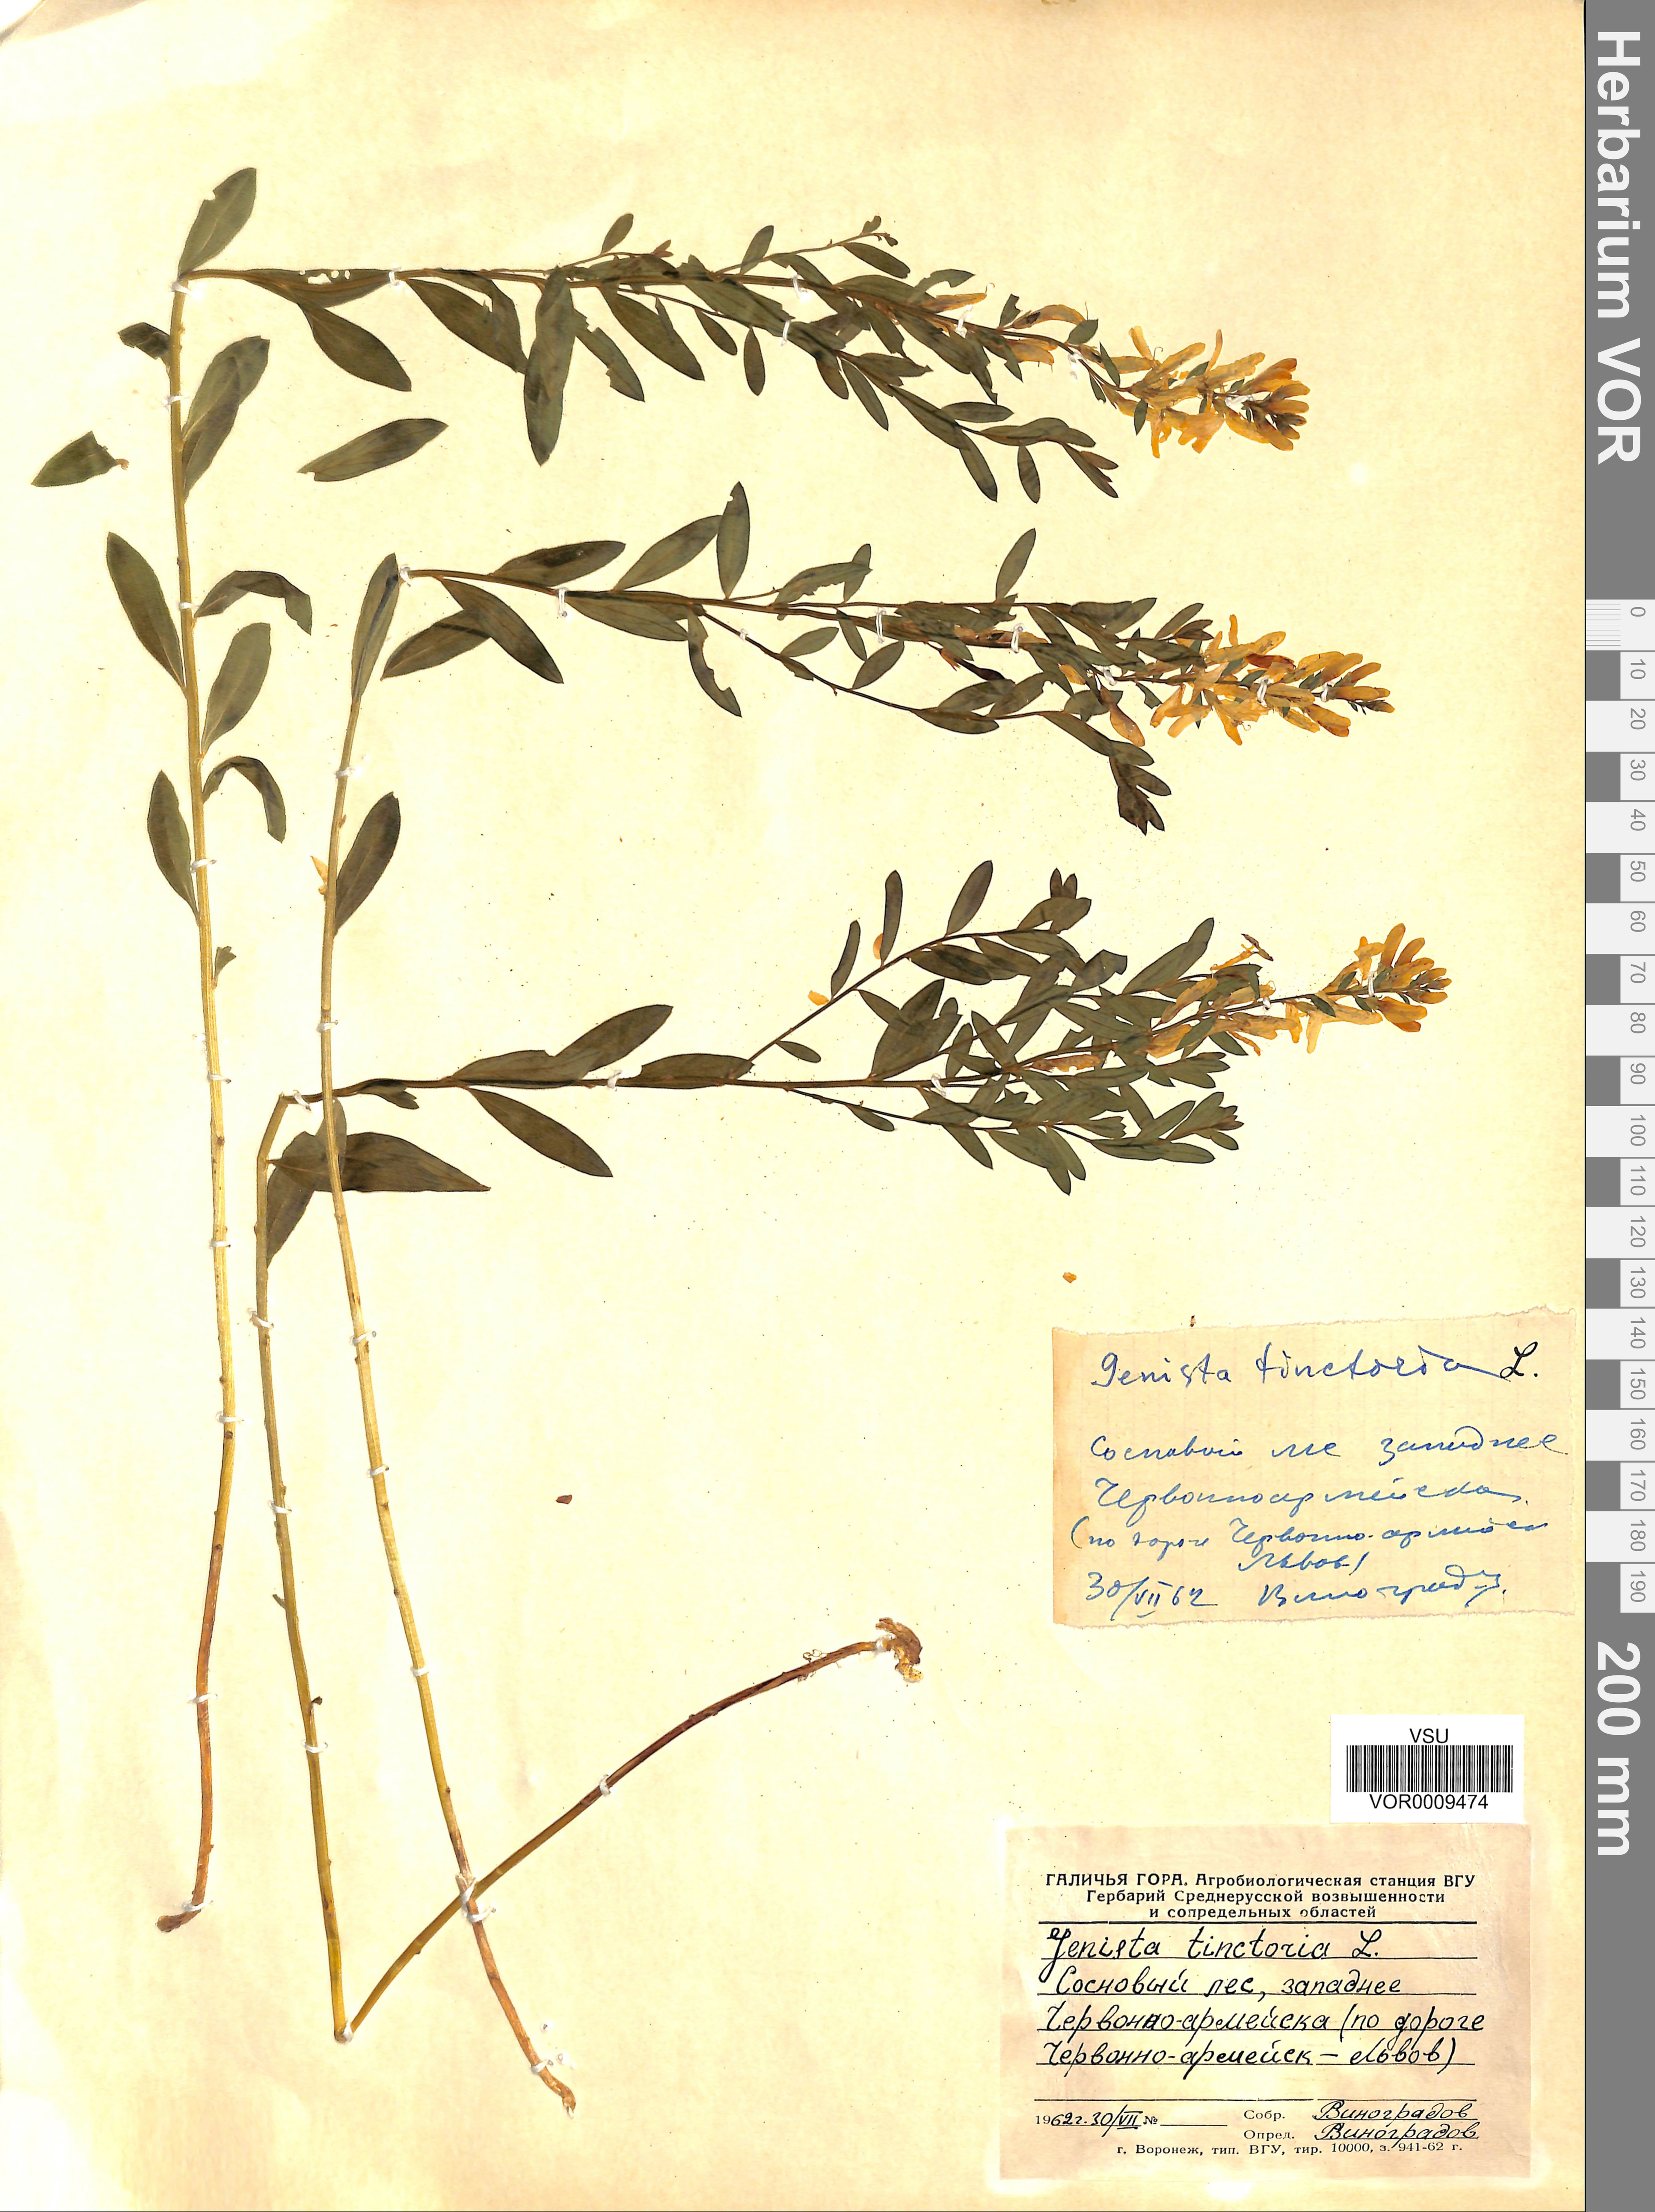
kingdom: Plantae
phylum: Tracheophyta
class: Magnoliopsida
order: Fabales
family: Fabaceae
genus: Genista
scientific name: Genista tinctoria
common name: Dyer's greenweed
